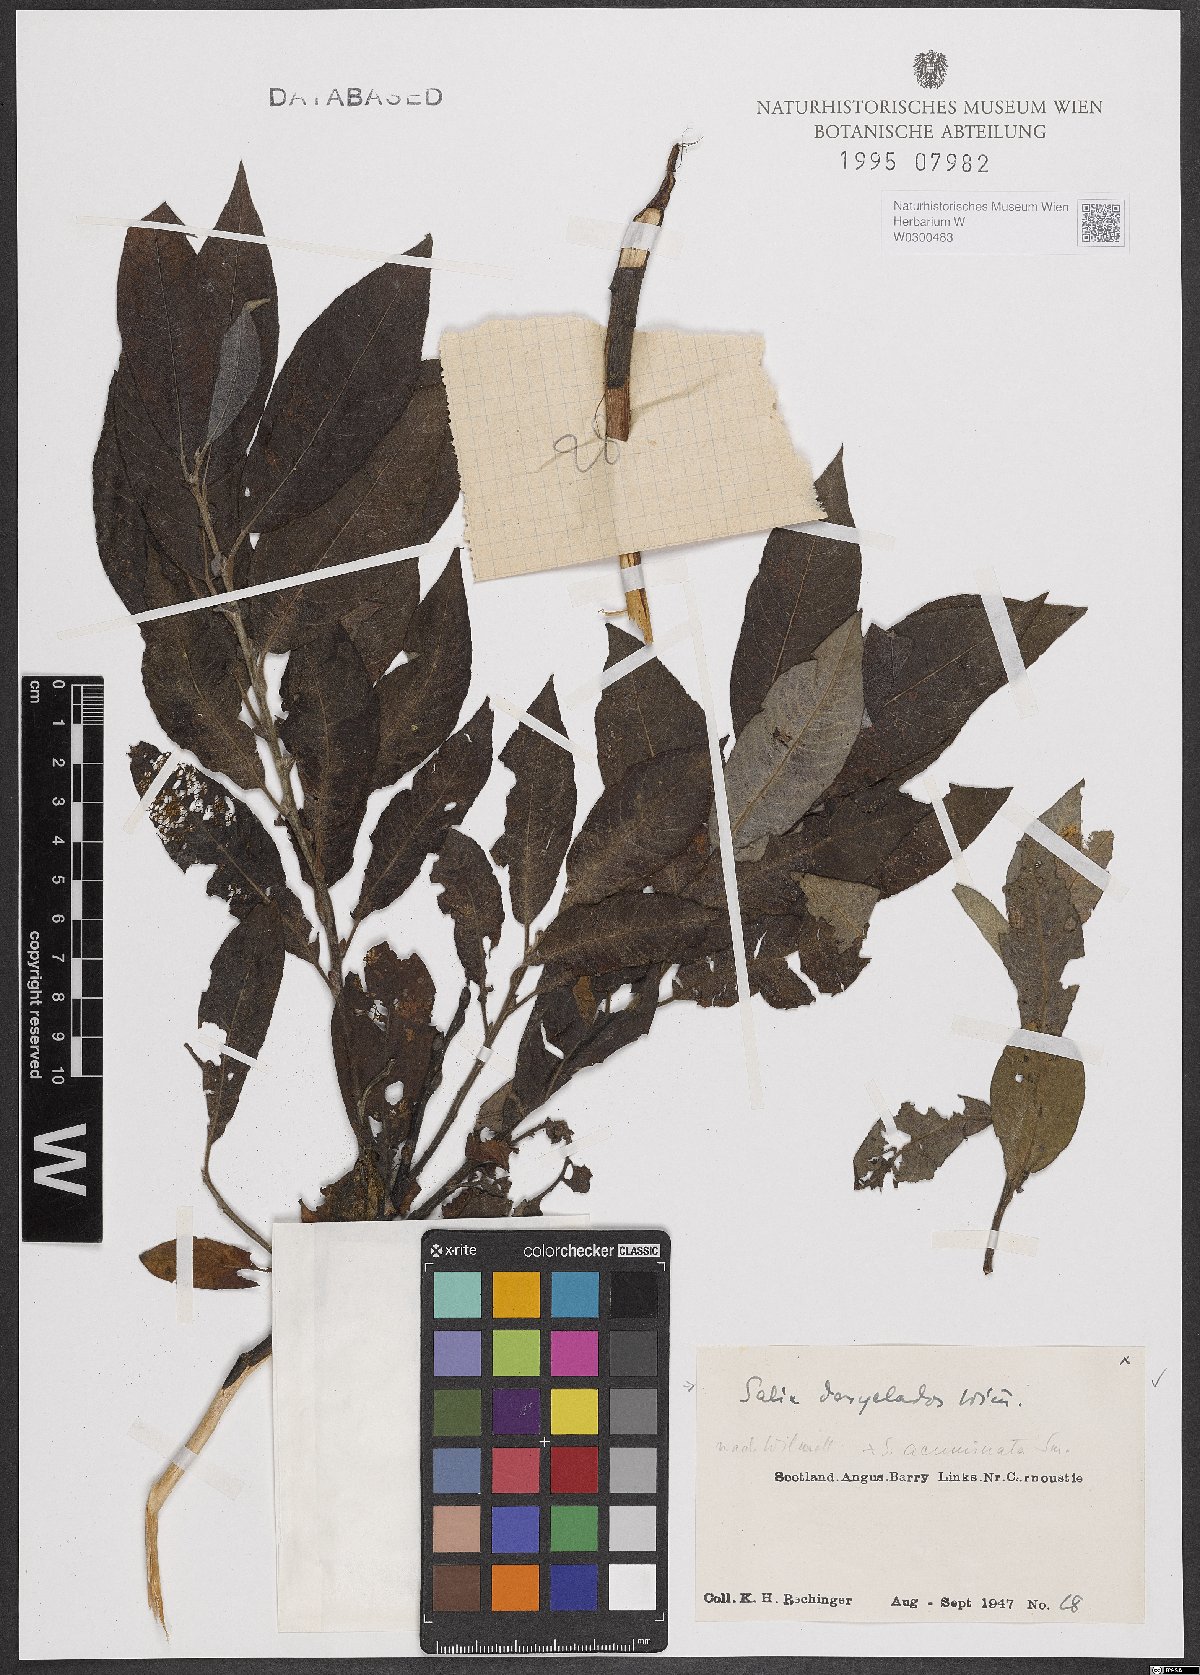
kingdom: Plantae
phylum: Tracheophyta
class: Magnoliopsida
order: Malpighiales
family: Salicaceae
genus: Salix
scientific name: Salix gmelinii
